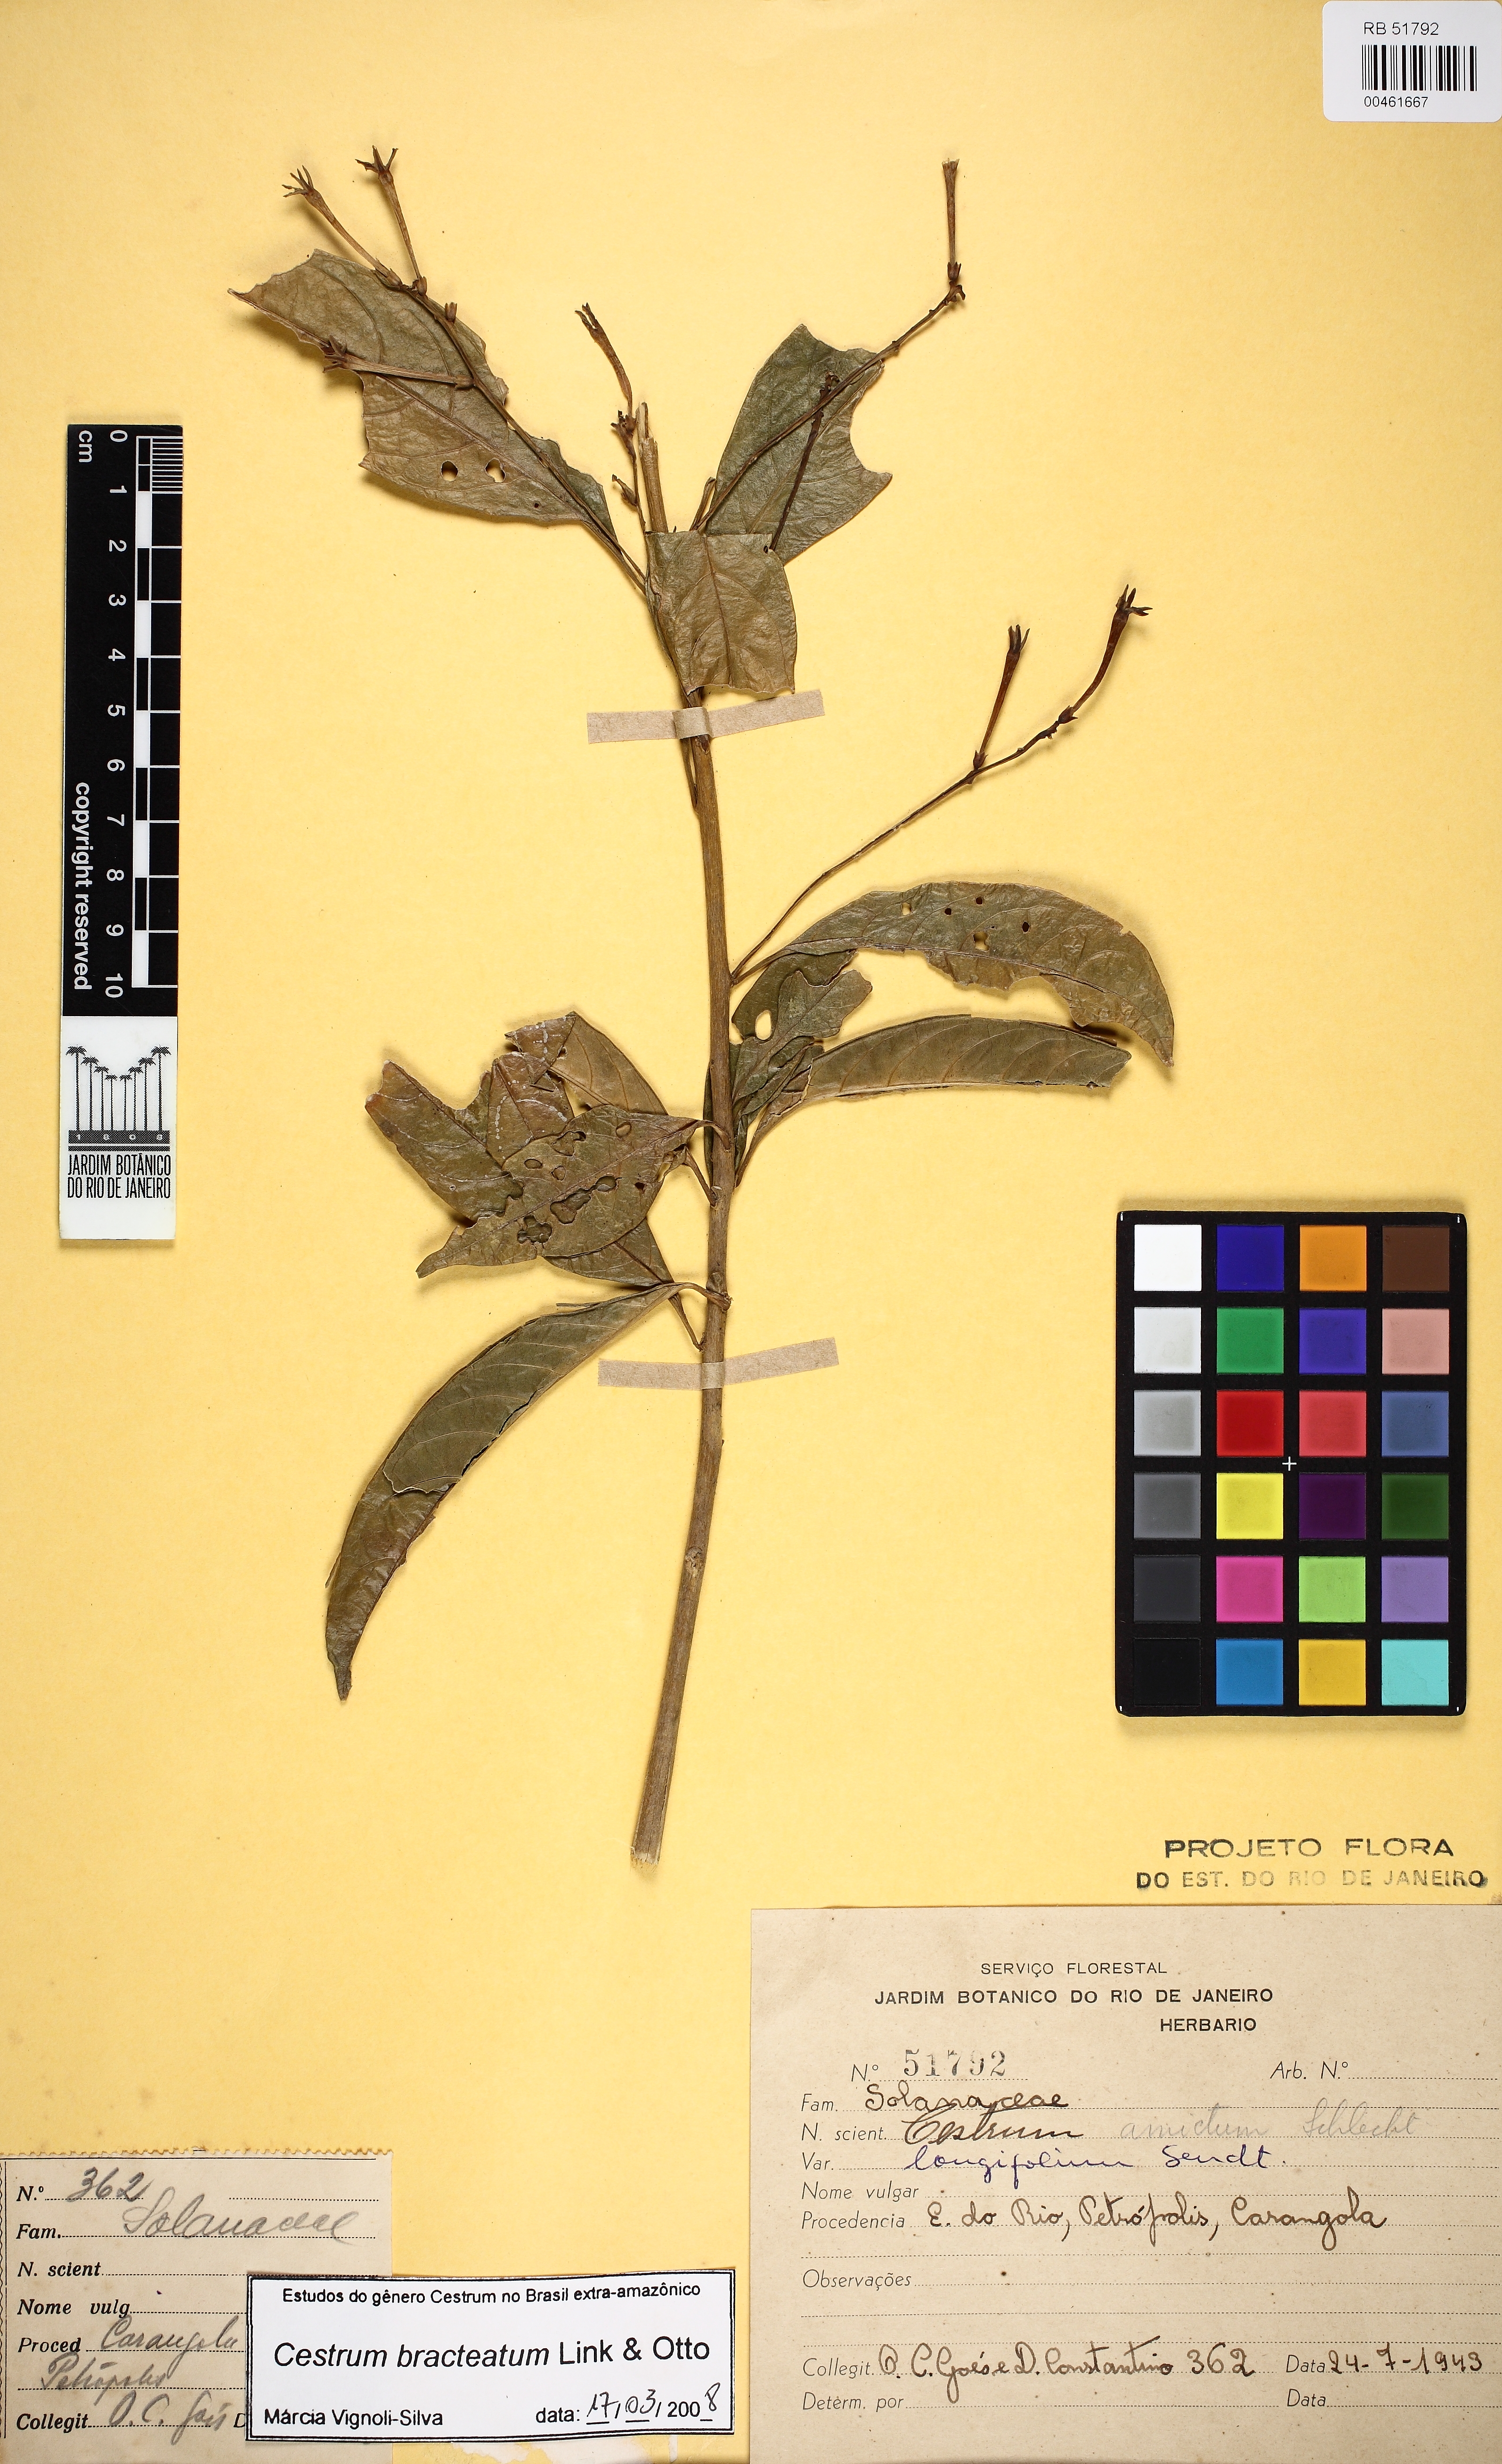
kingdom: Plantae
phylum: Tracheophyta
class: Magnoliopsida
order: Solanales
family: Solanaceae
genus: Cestrum
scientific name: Cestrum bracteatum
